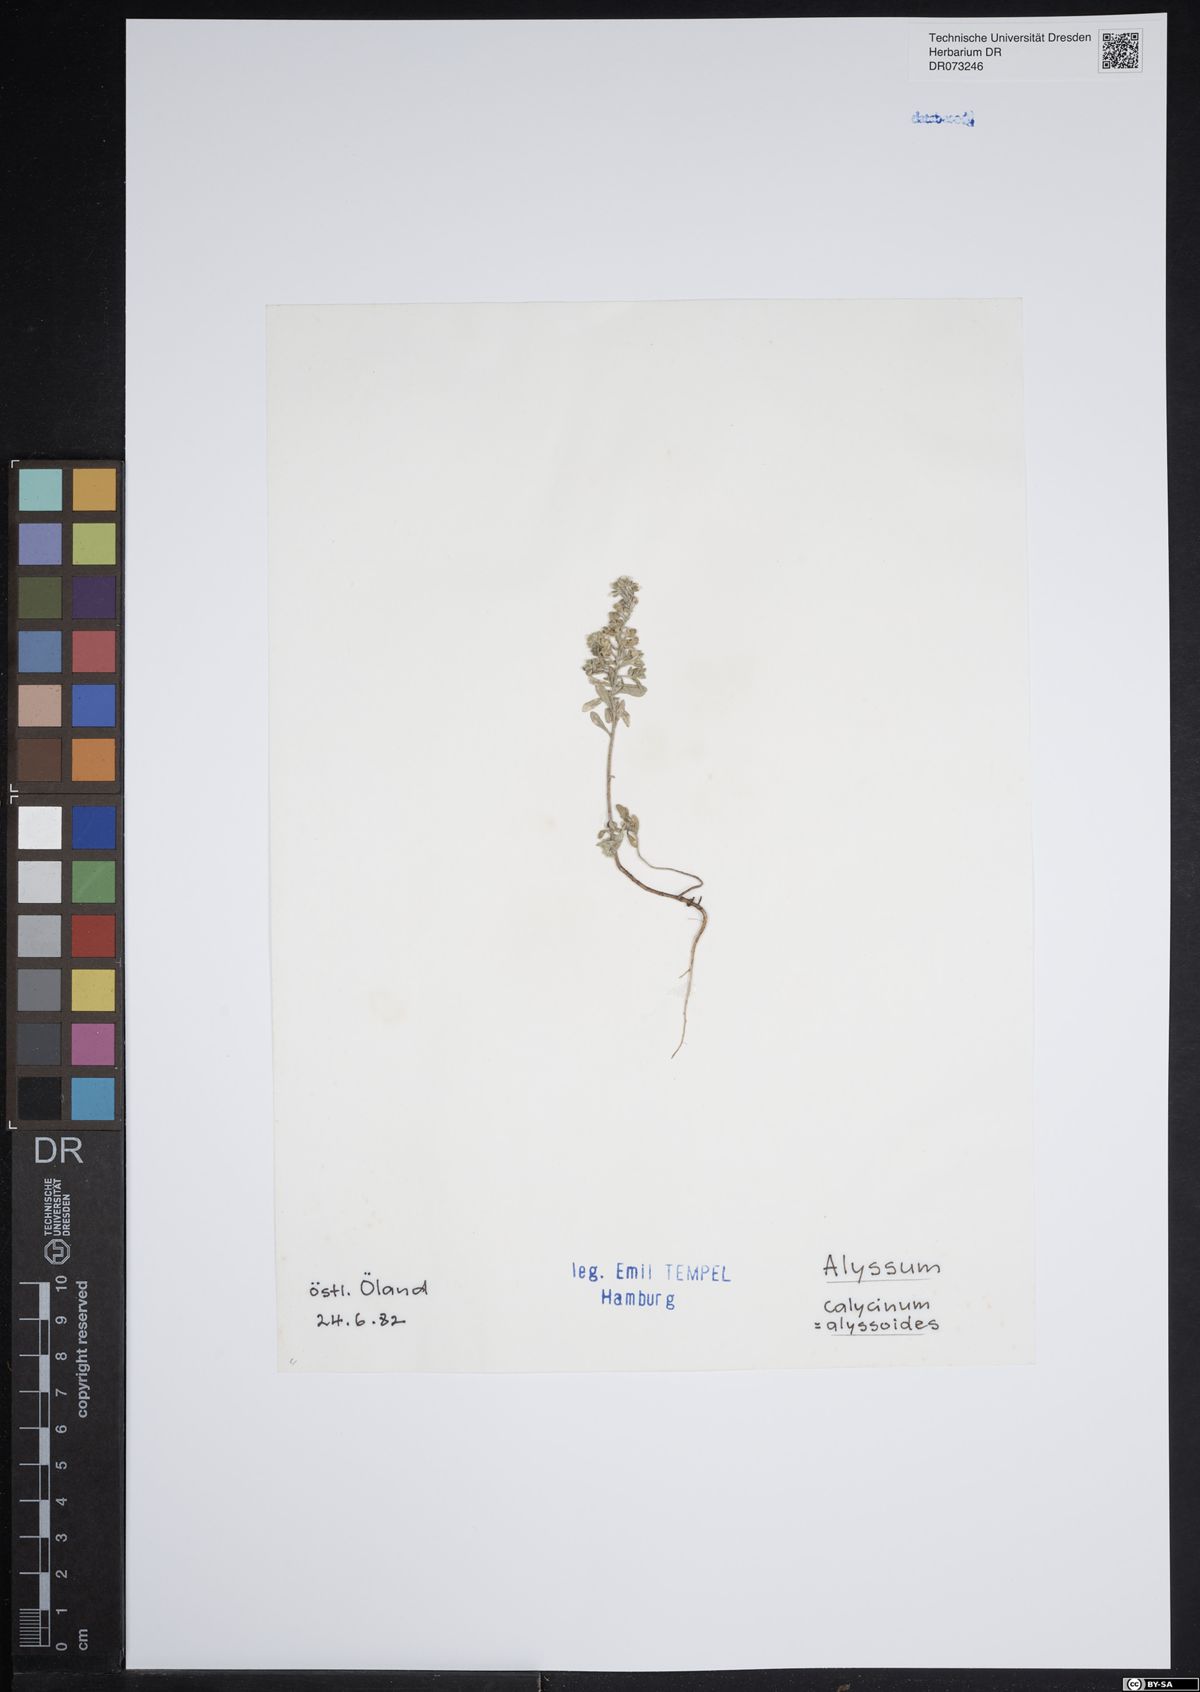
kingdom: Plantae
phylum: Tracheophyta
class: Magnoliopsida
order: Brassicales
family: Brassicaceae
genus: Alyssum
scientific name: Alyssum alyssoides
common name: Small alison
